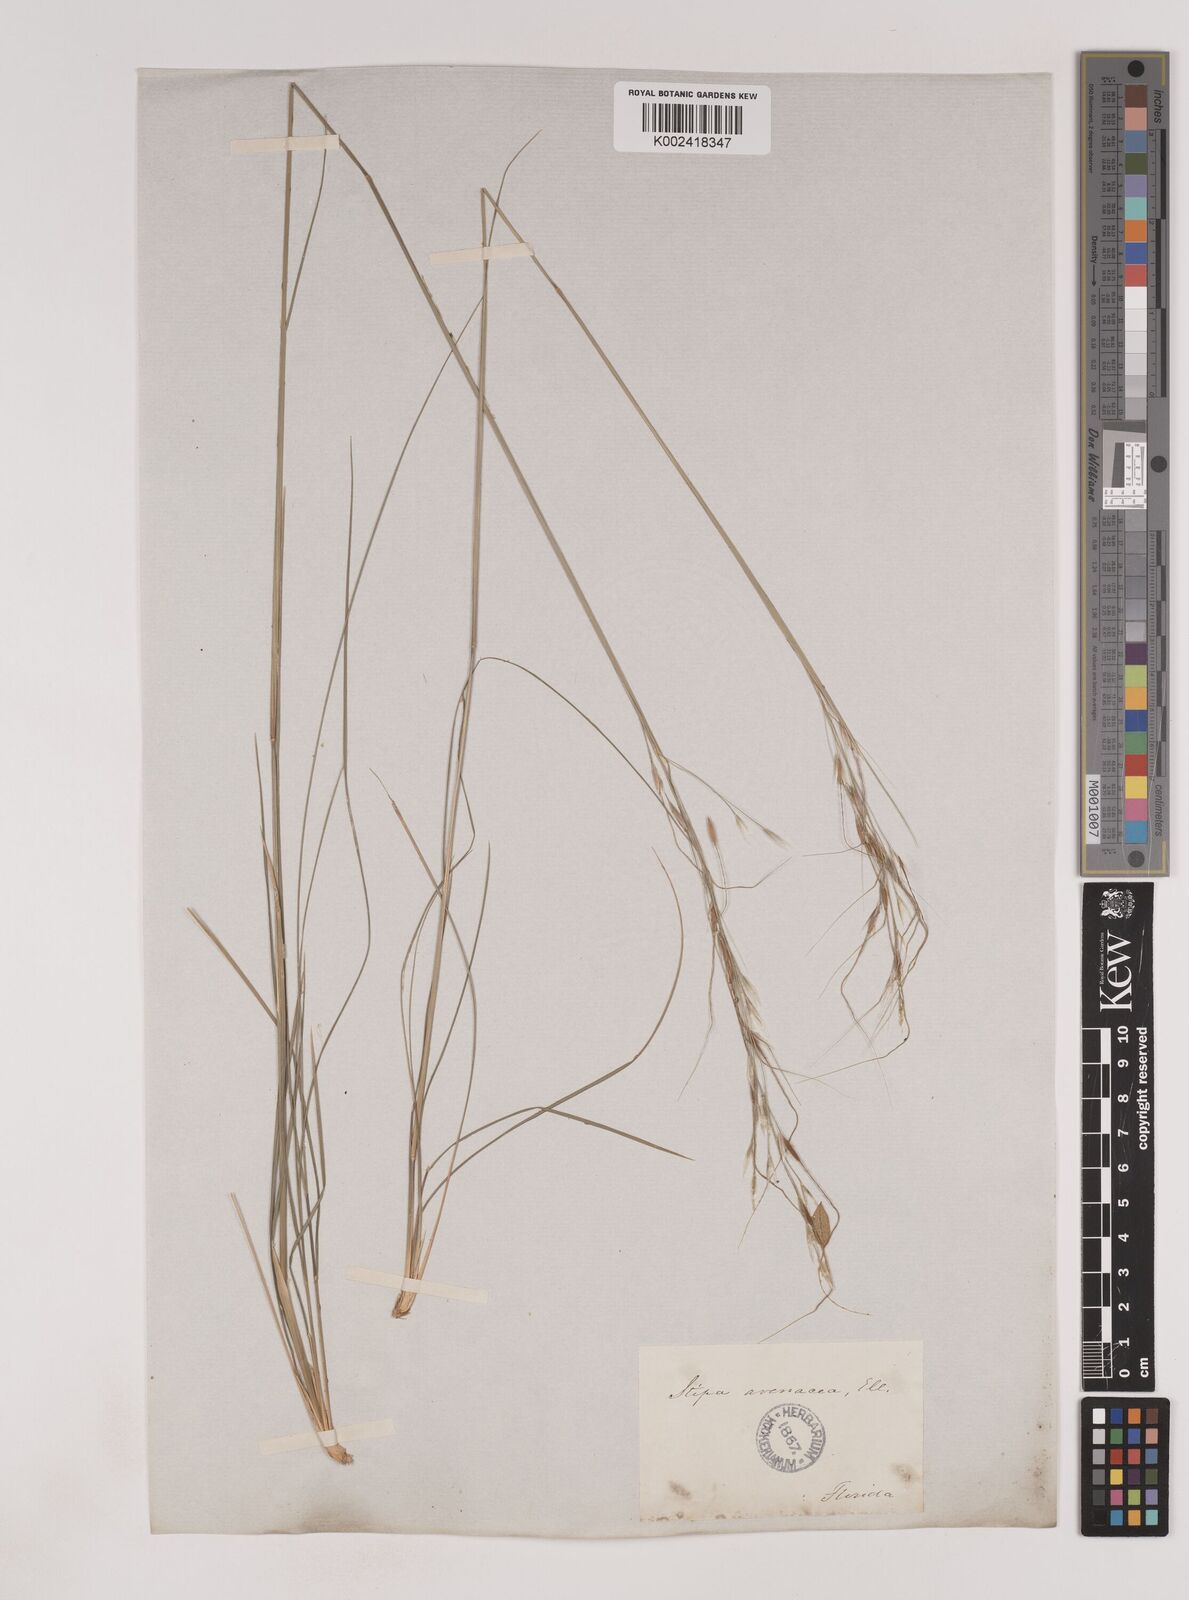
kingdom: Plantae
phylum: Tracheophyta
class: Liliopsida
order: Poales
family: Poaceae
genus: Piptochaetium
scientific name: Piptochaetium avenaceum
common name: Black bunchgrass
